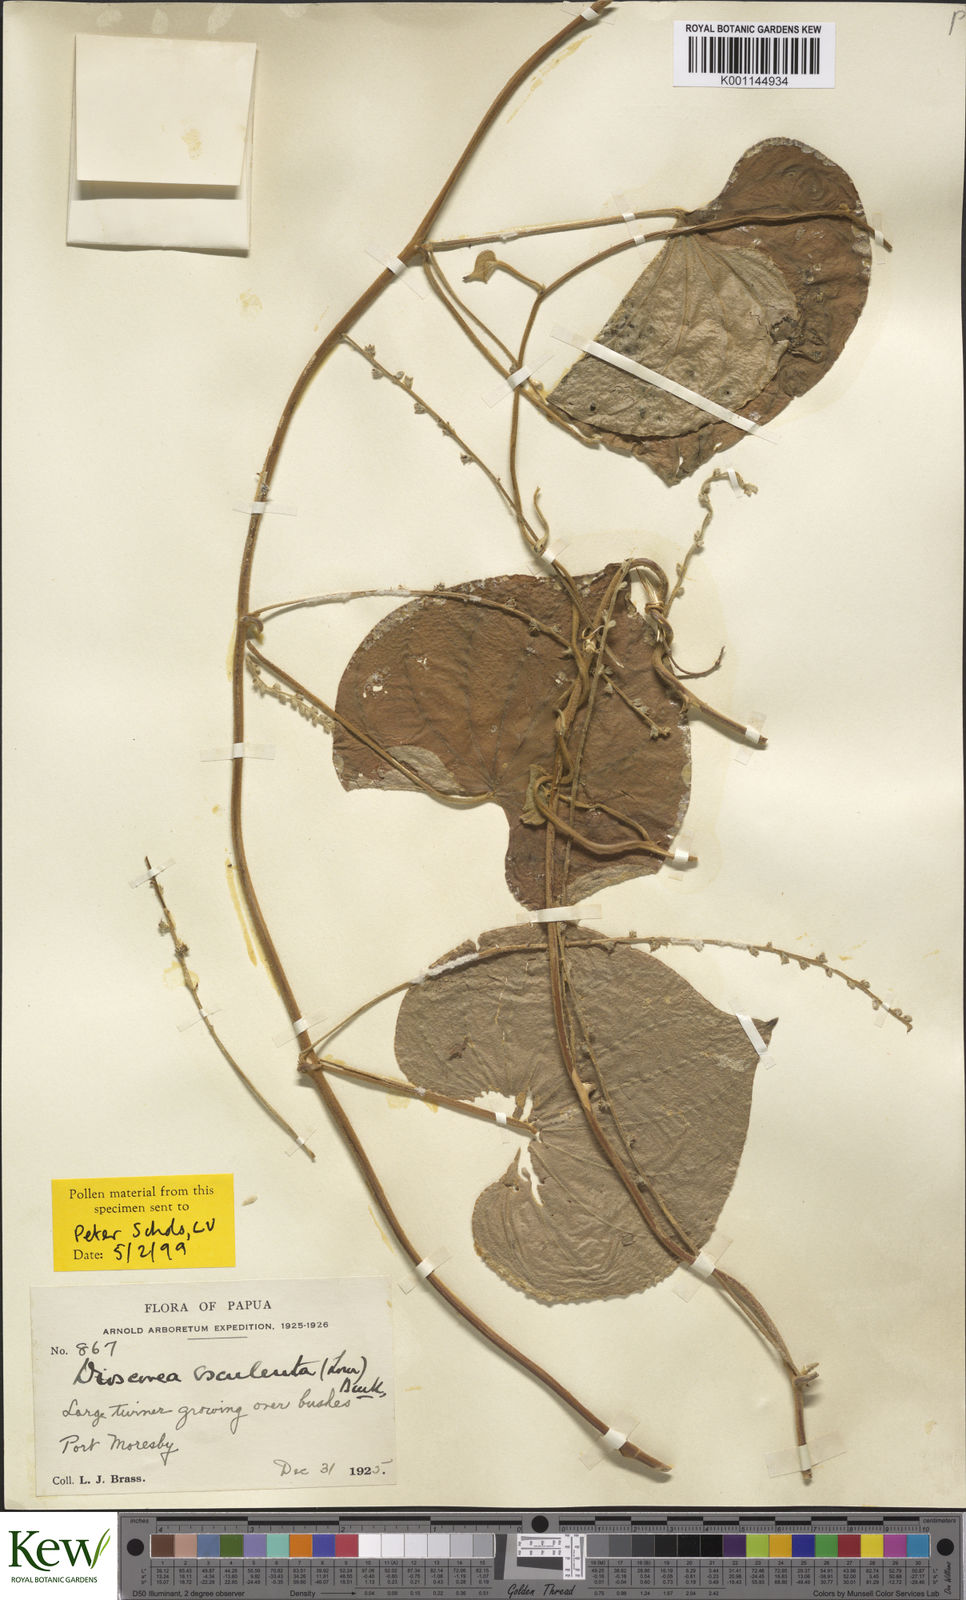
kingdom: Plantae
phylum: Tracheophyta
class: Liliopsida
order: Dioscoreales
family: Dioscoreaceae
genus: Dioscorea
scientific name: Dioscorea esculenta
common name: Chinese yam
